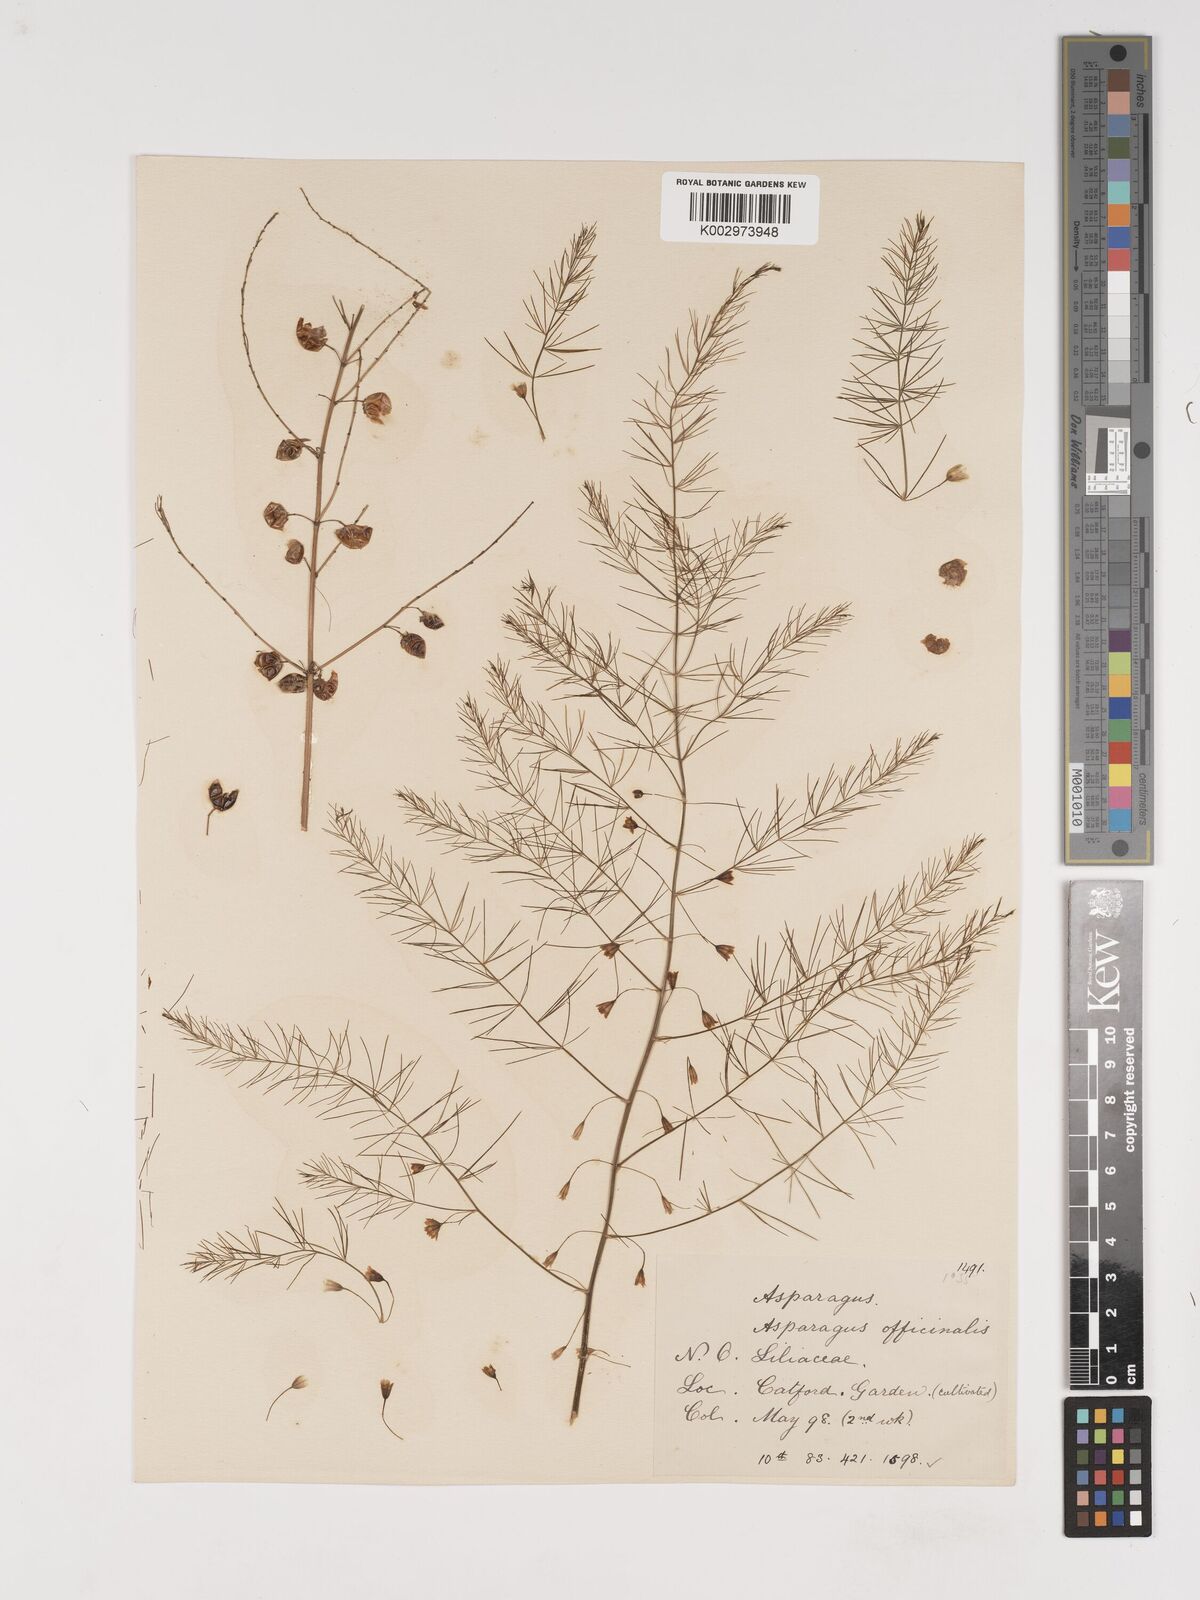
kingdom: Plantae
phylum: Tracheophyta
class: Liliopsida
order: Asparagales
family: Asparagaceae
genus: Asparagus
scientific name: Asparagus officinalis
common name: Garden asparagus
